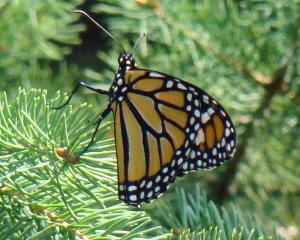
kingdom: Animalia
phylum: Arthropoda
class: Insecta
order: Lepidoptera
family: Nymphalidae
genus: Danaus
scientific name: Danaus plexippus
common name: Monarch
